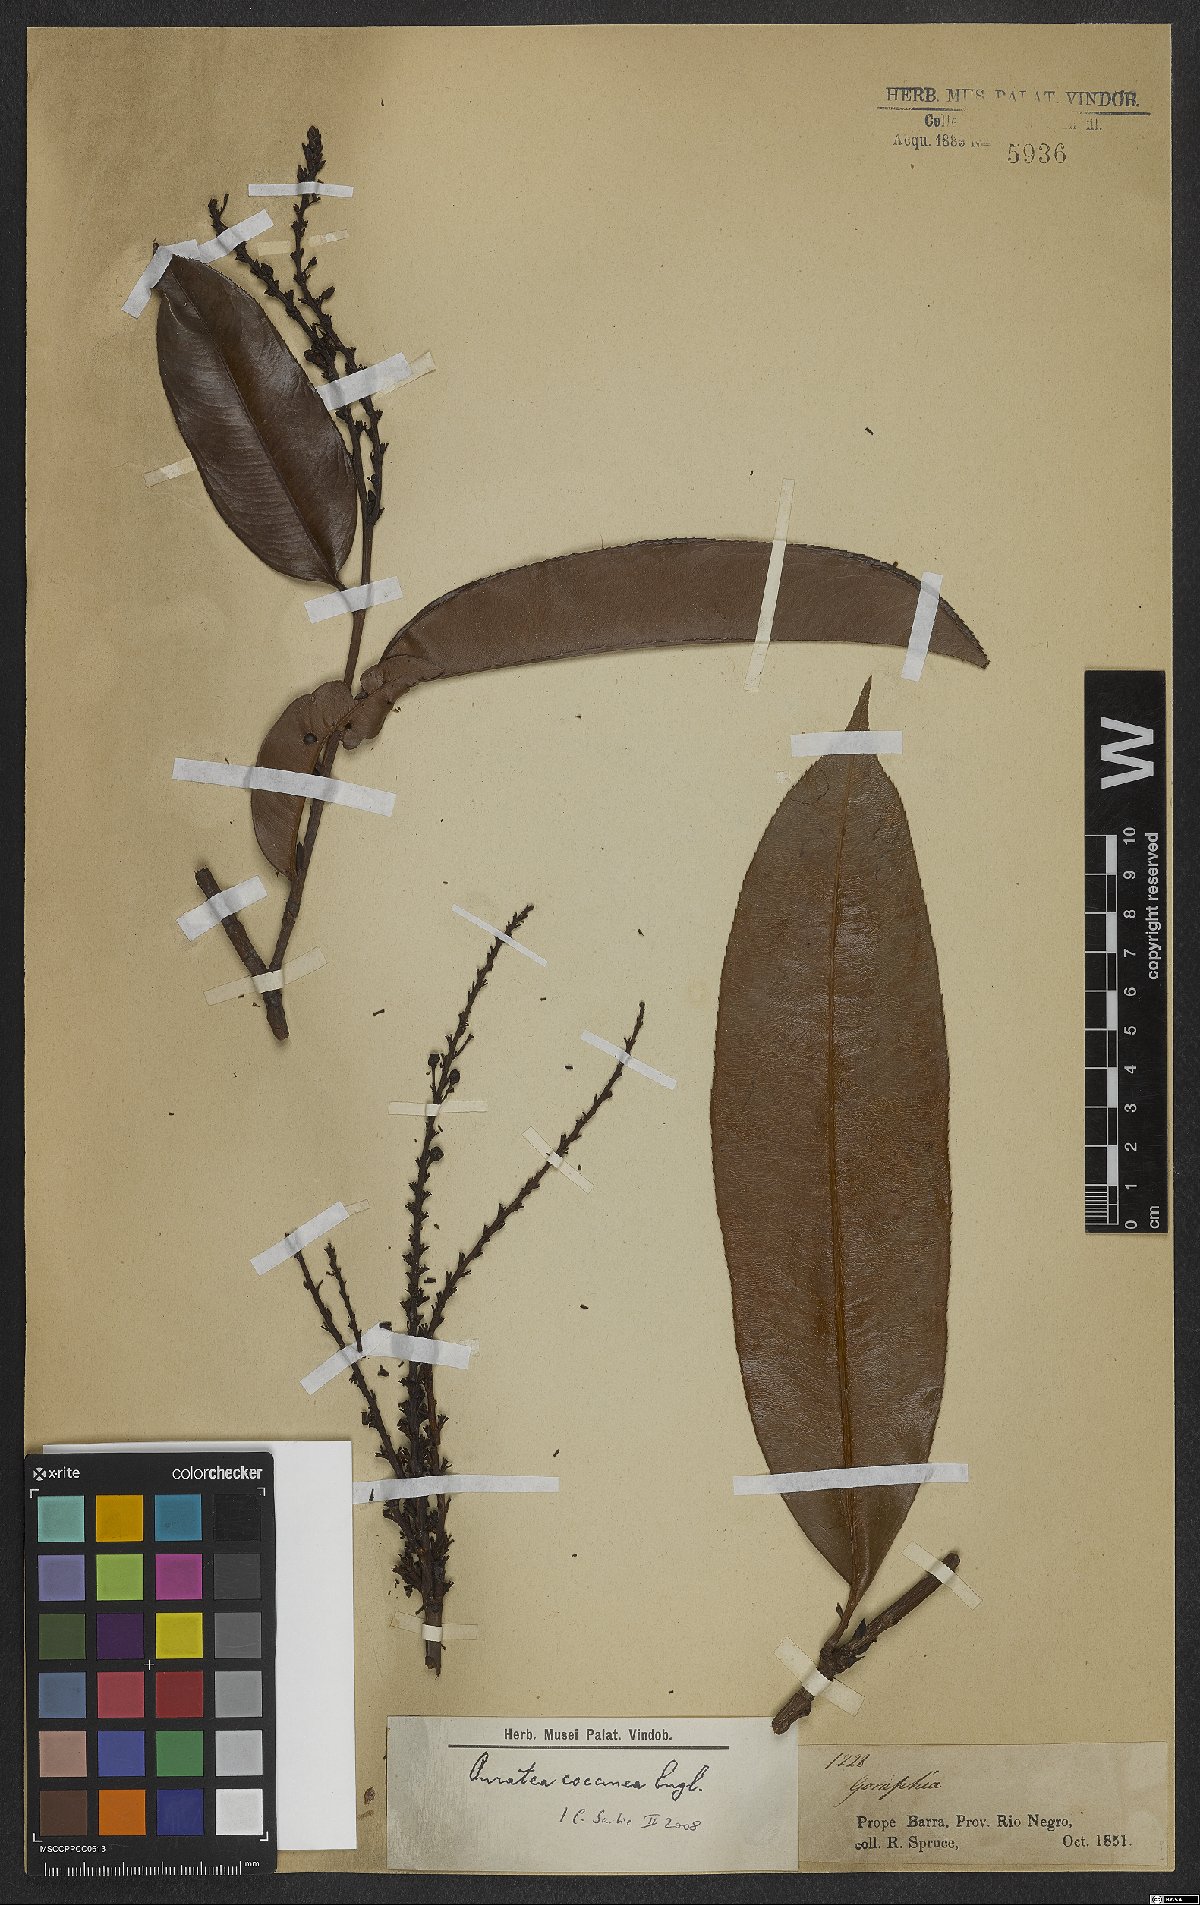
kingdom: Plantae
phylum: Tracheophyta
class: Magnoliopsida
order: Malpighiales
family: Ochnaceae
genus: Ouratea
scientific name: Ouratea coccinea
